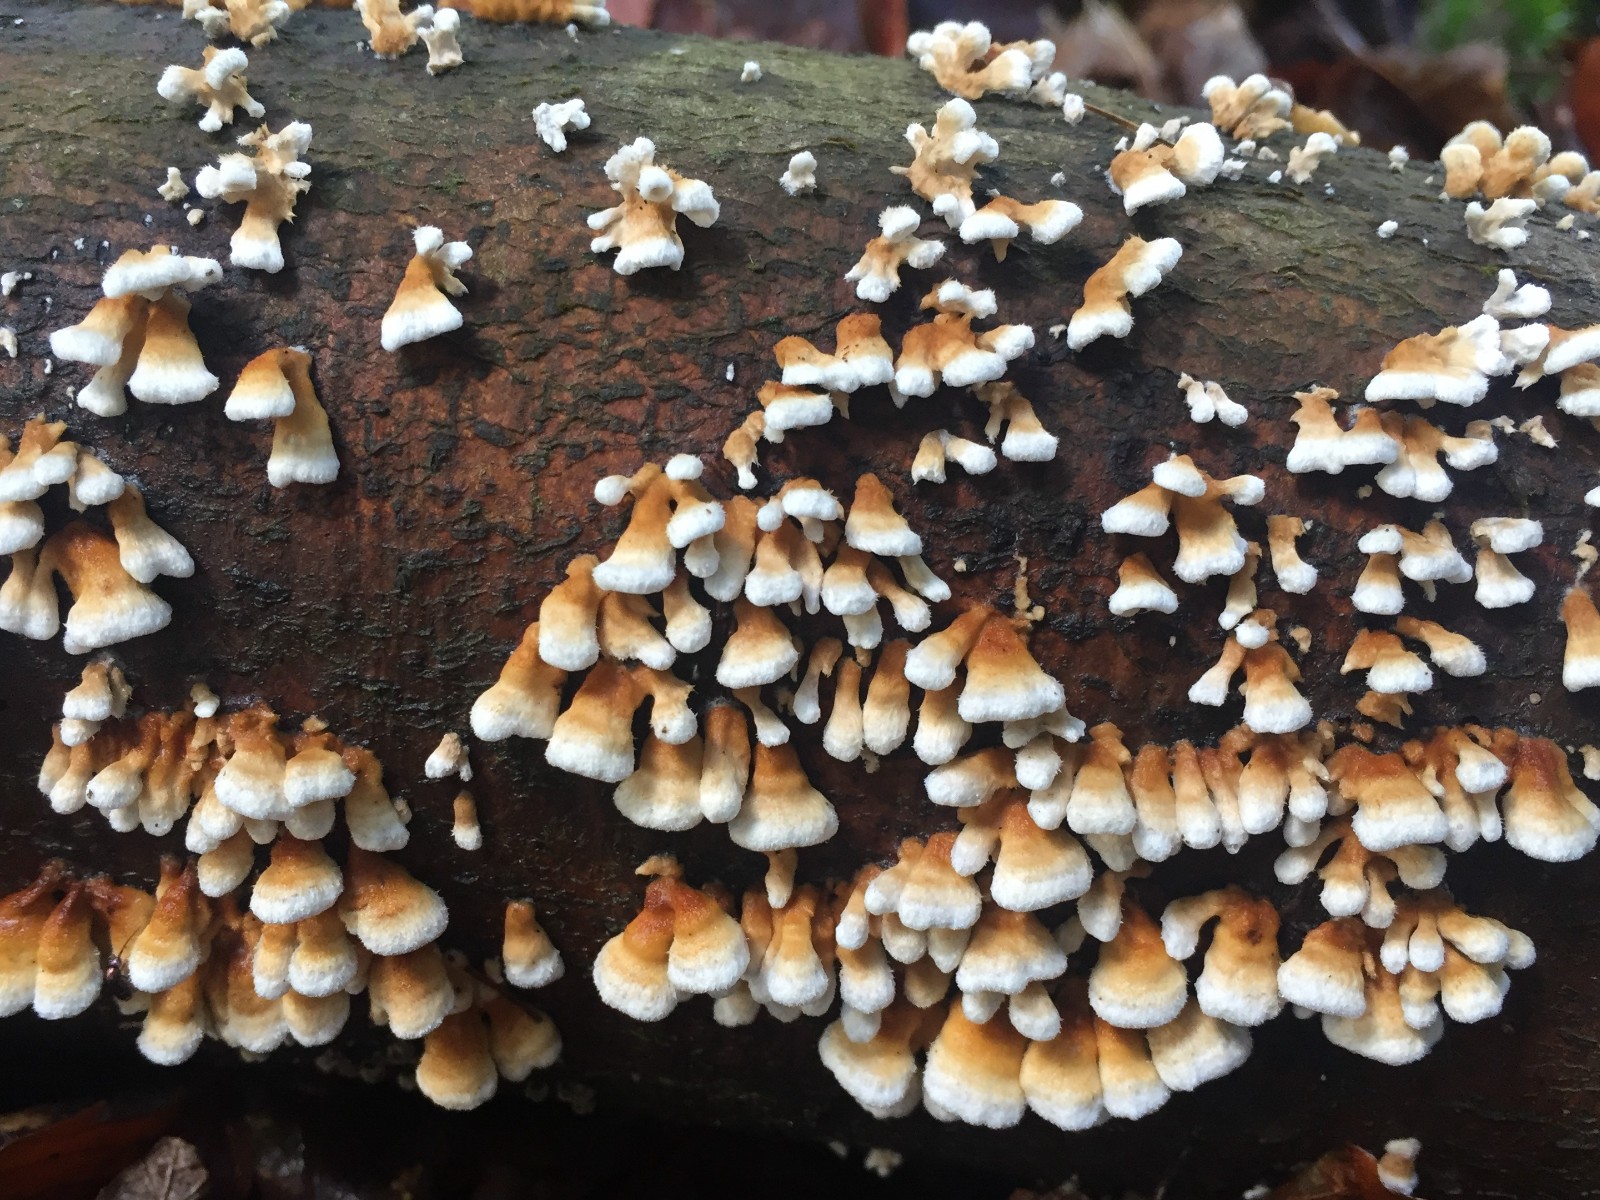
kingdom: Fungi
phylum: Basidiomycota
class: Agaricomycetes
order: Amylocorticiales
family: Amylocorticiaceae
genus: Plicaturopsis
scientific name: Plicaturopsis crispa
